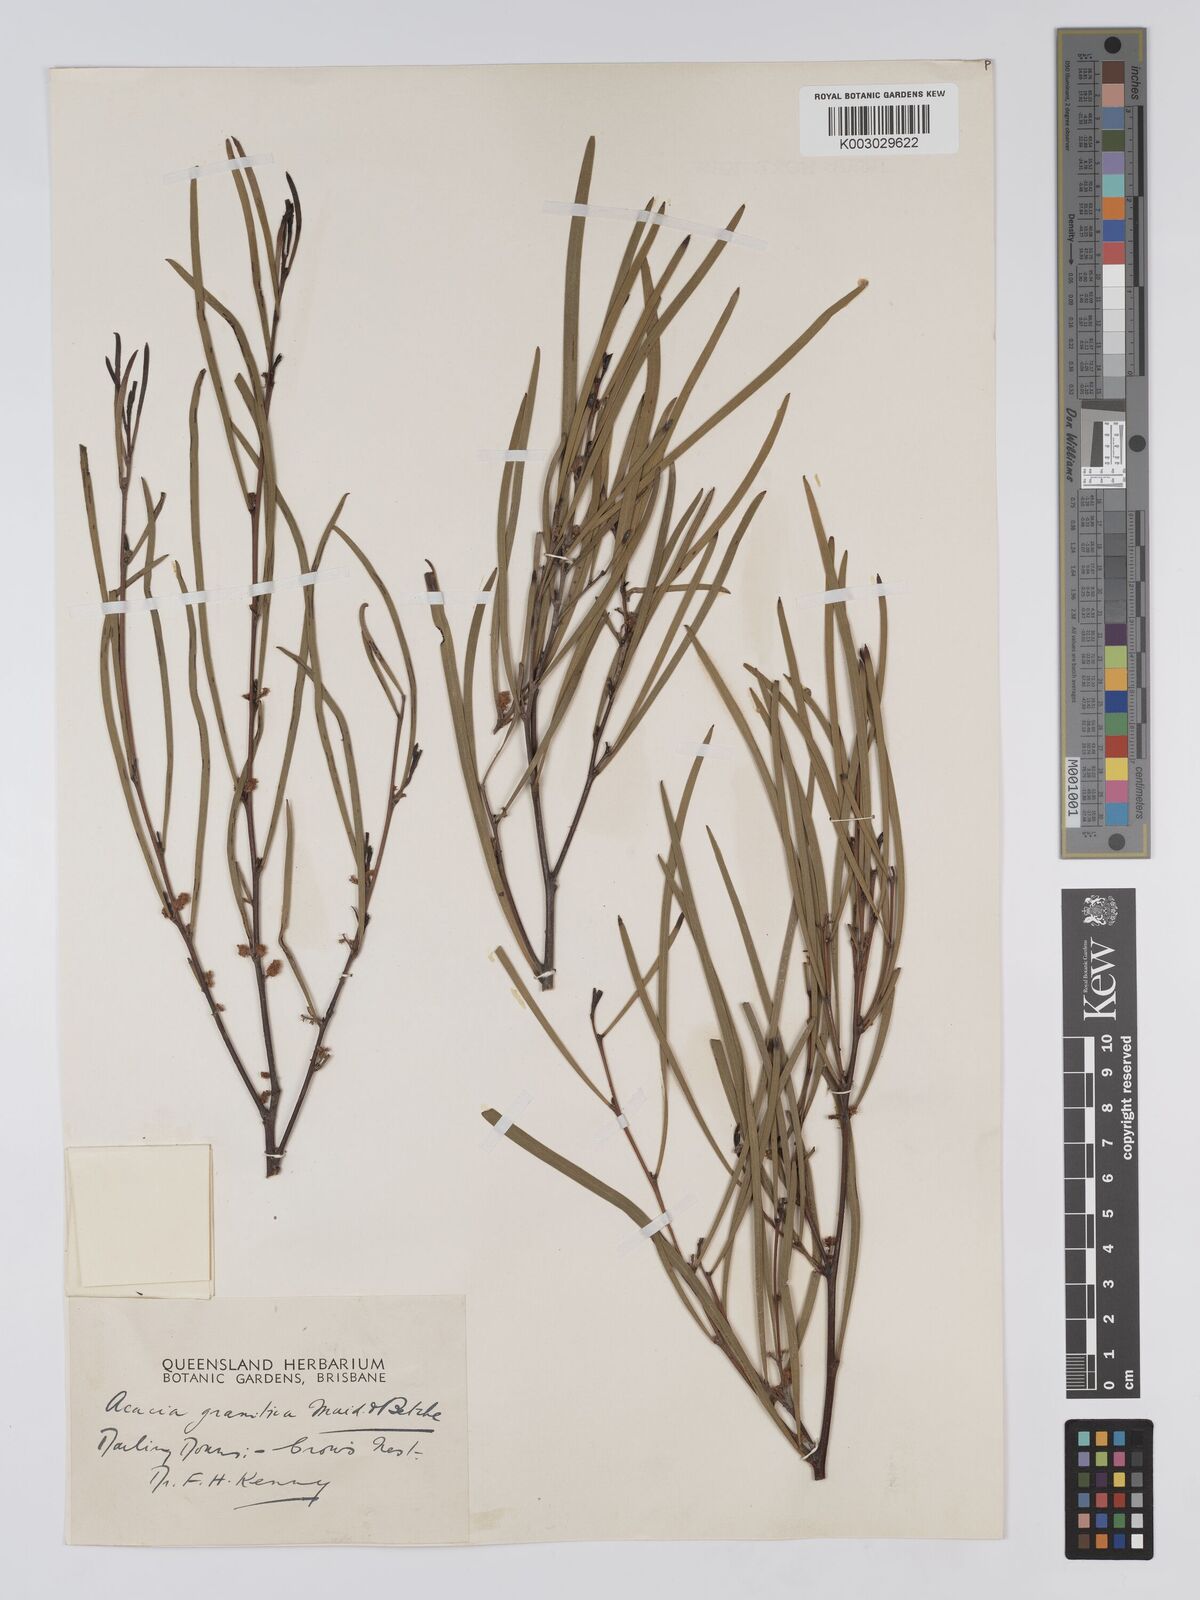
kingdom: Plantae
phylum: Tracheophyta
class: Magnoliopsida
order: Fabales
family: Fabaceae
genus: Acacia
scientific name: Acacia granitica
